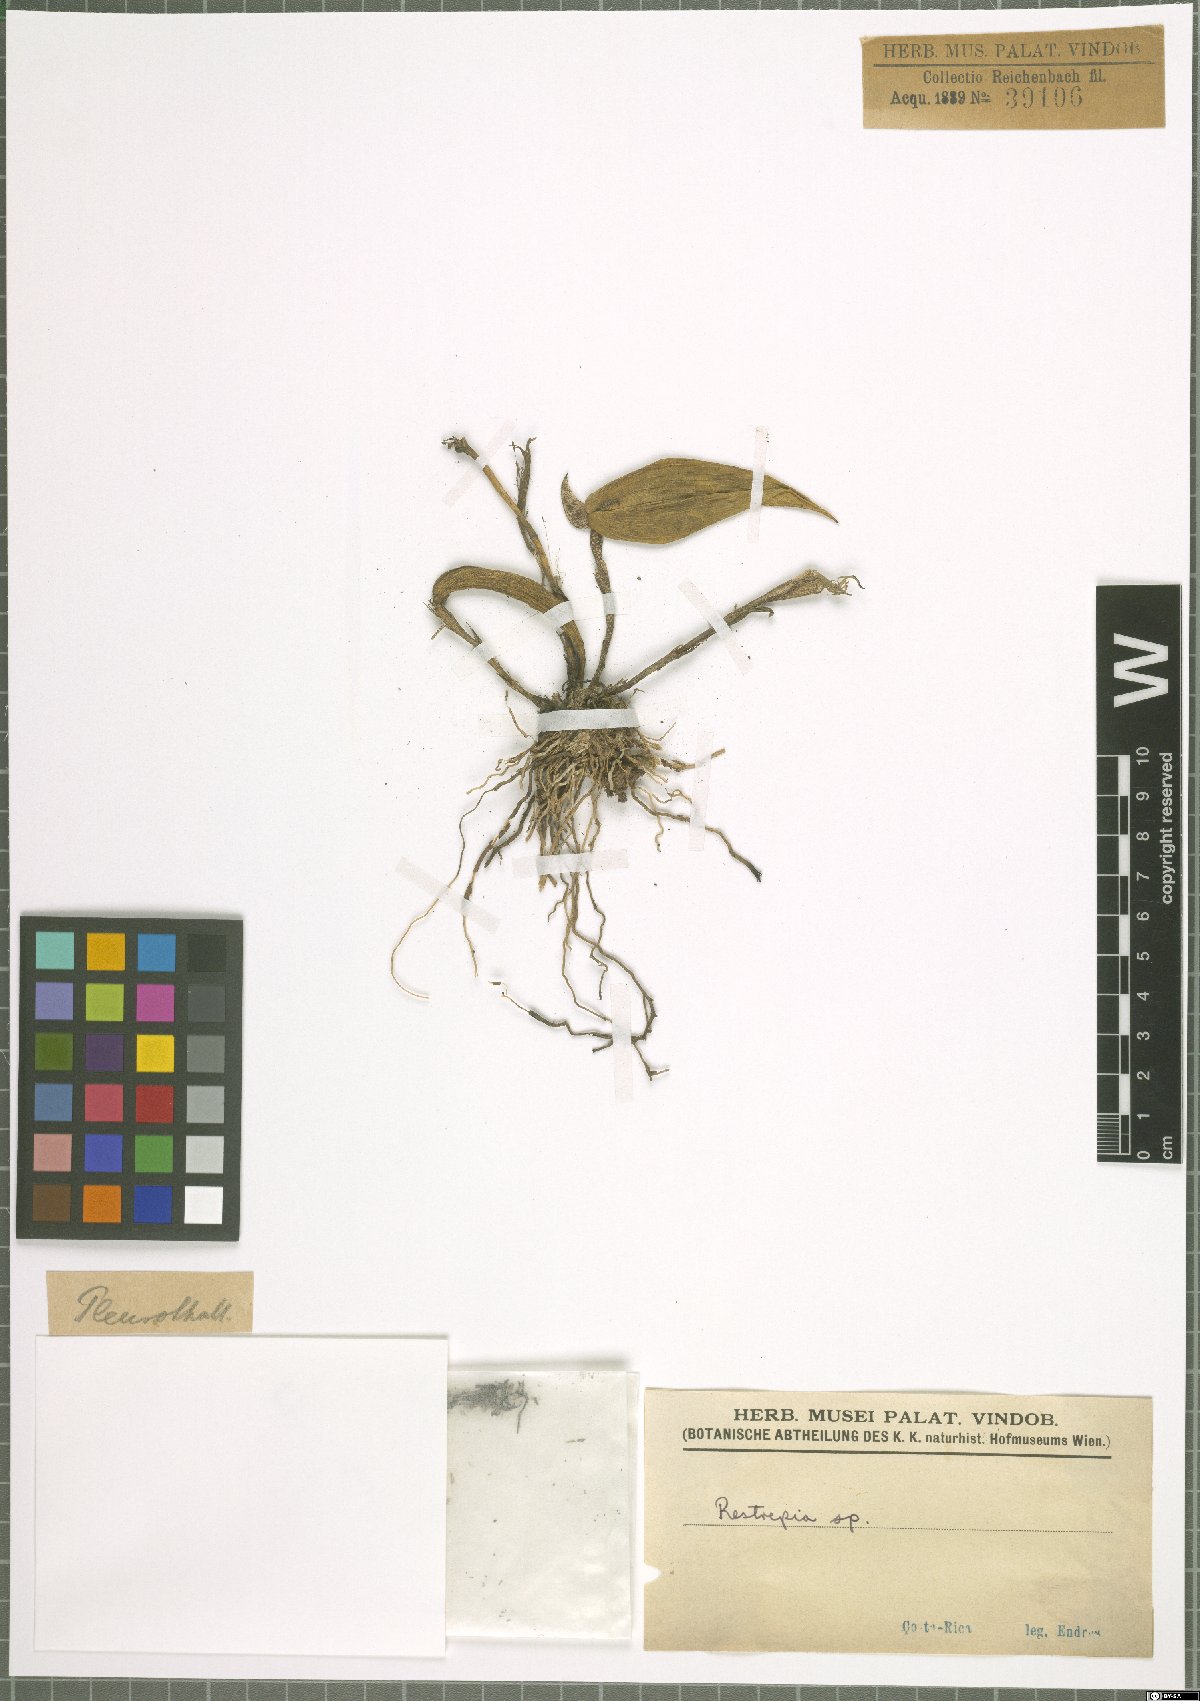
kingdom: Plantae
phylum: Tracheophyta
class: Liliopsida
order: Asparagales
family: Orchidaceae
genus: Restrepia
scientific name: Restrepia
